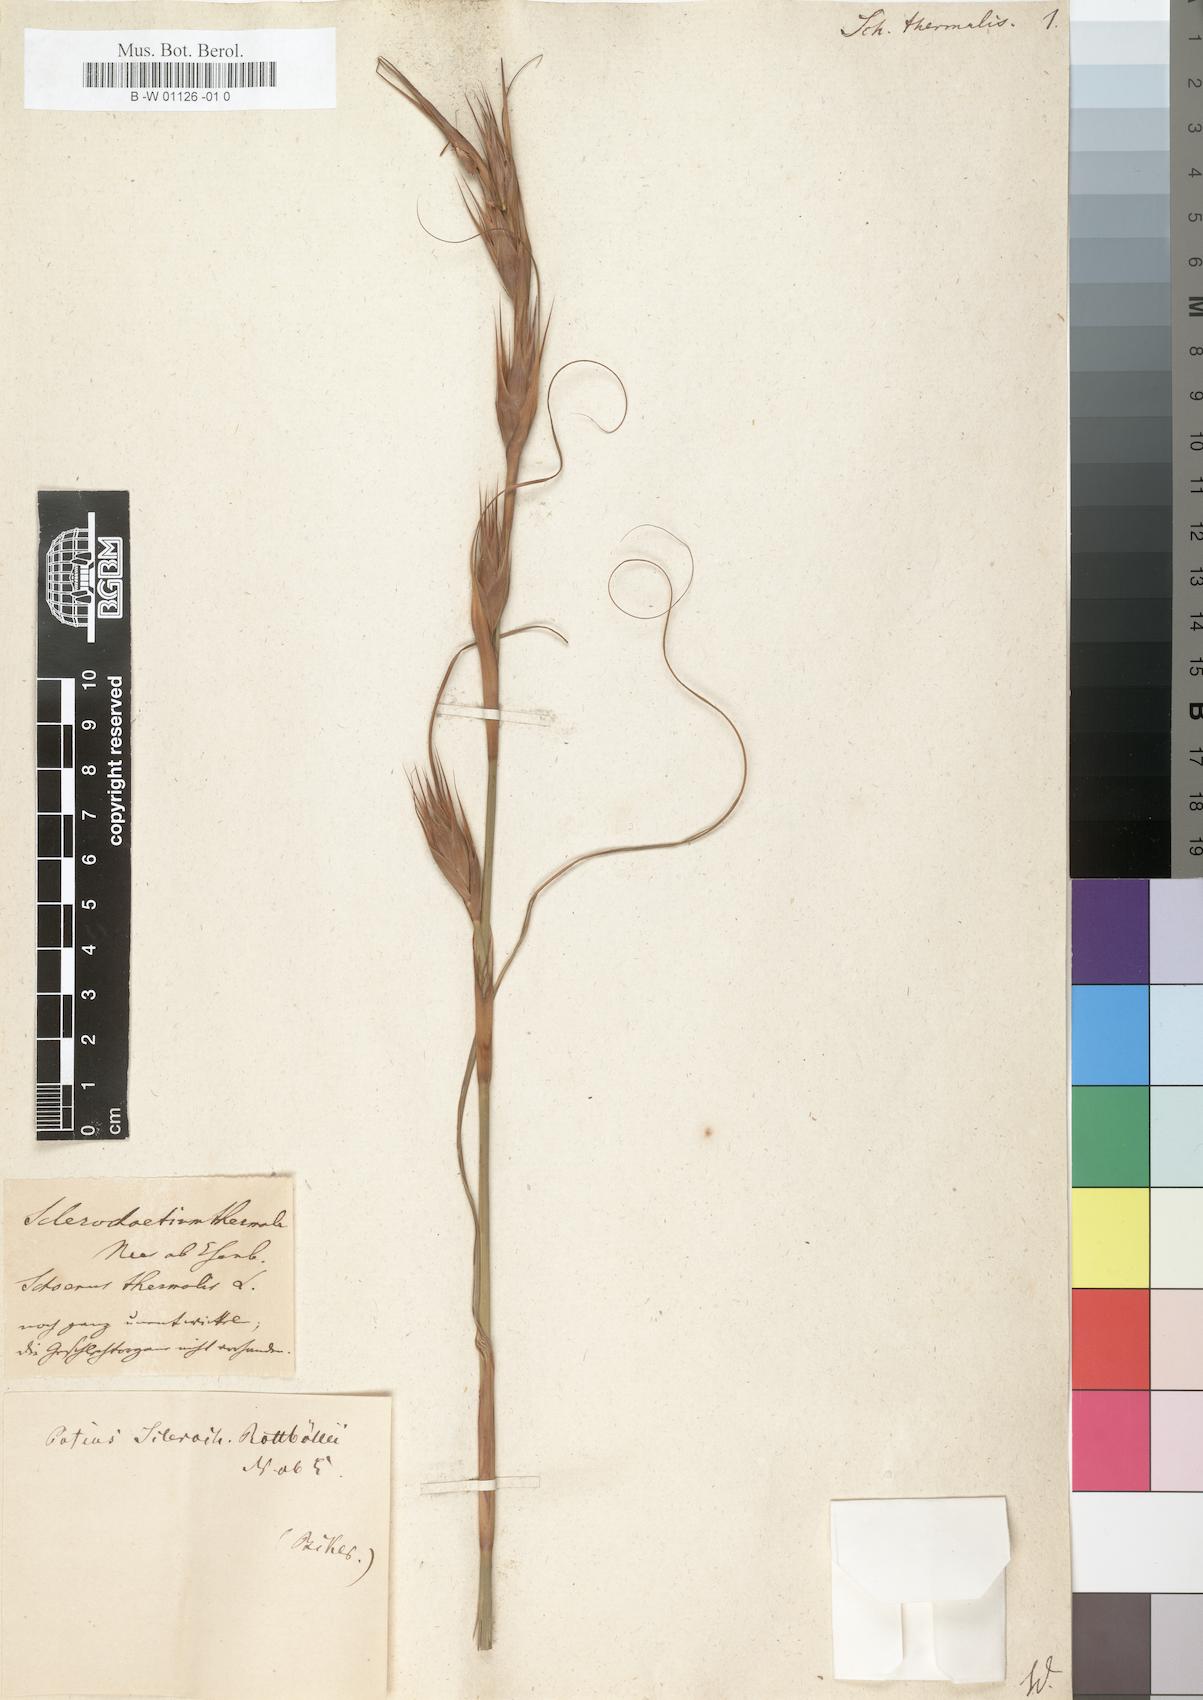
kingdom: Plantae
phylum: Tracheophyta
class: Liliopsida
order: Poales
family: Cyperaceae
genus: Tetraria
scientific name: Tetraria thermalis
